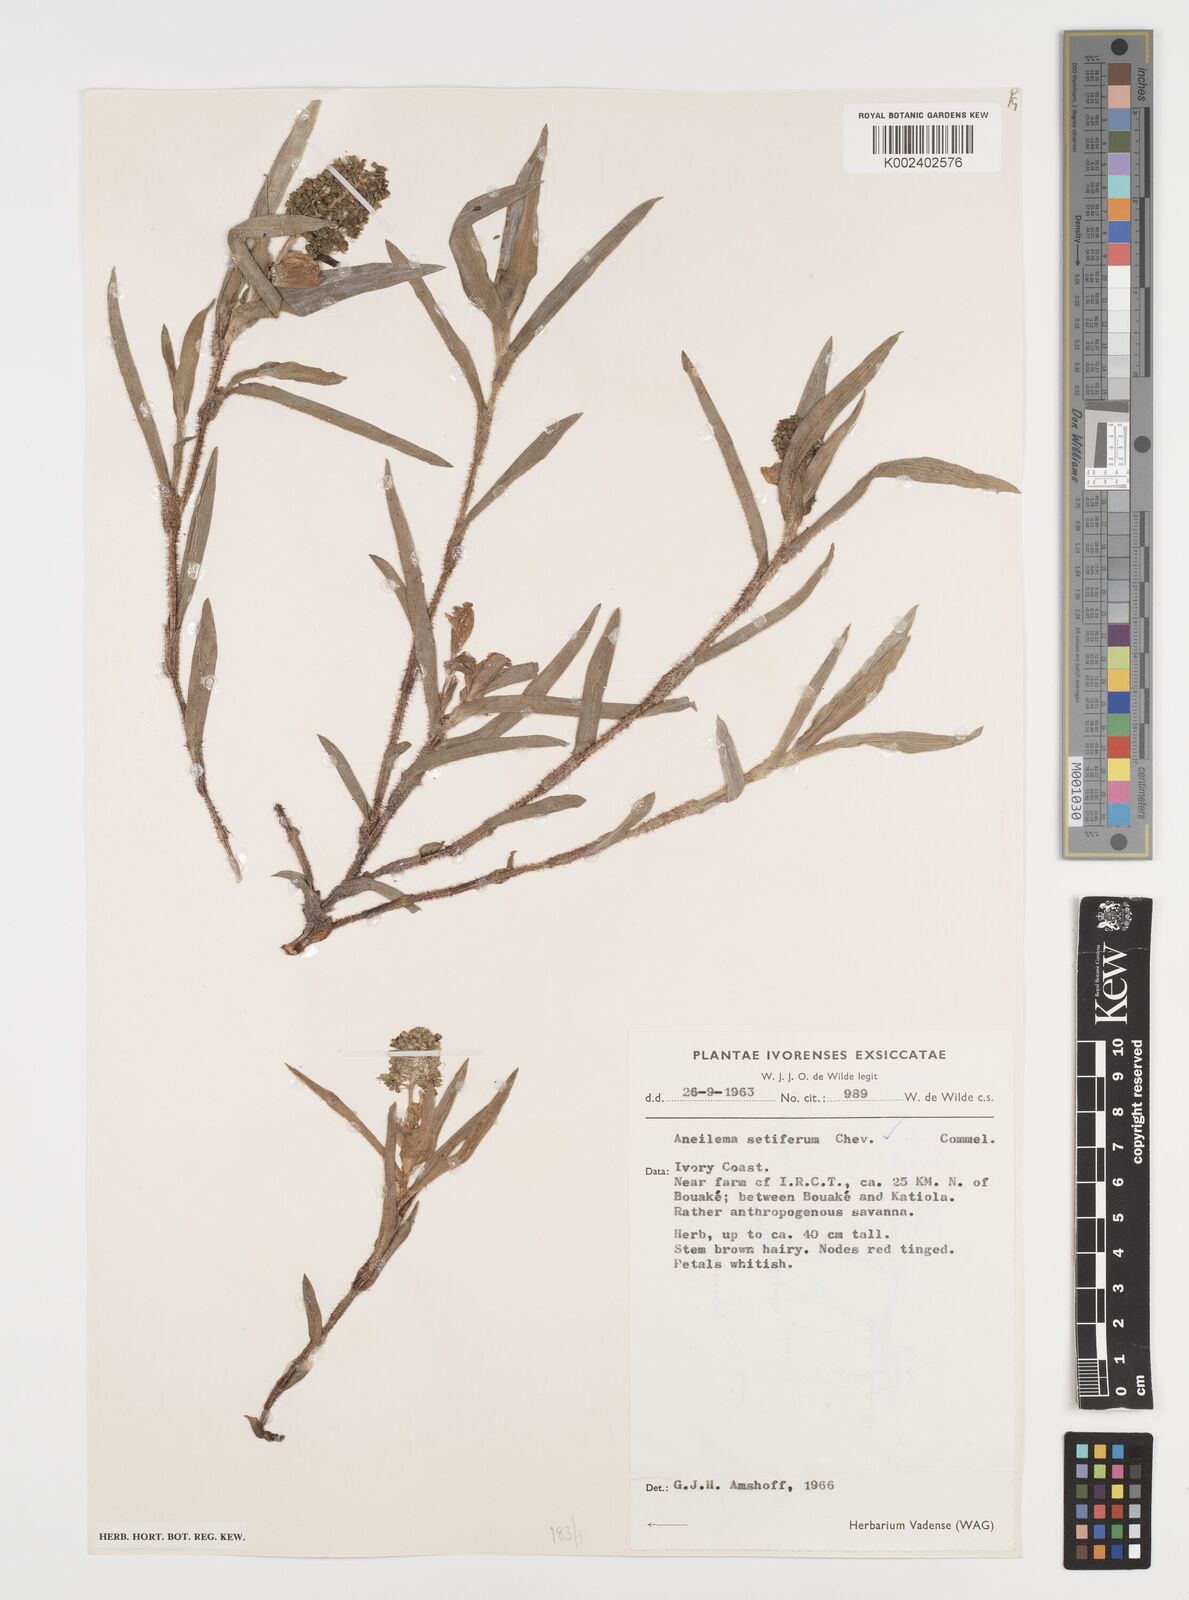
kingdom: Plantae
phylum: Tracheophyta
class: Liliopsida
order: Commelinales
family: Commelinaceae
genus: Aneilema
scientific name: Aneilema setiferum
